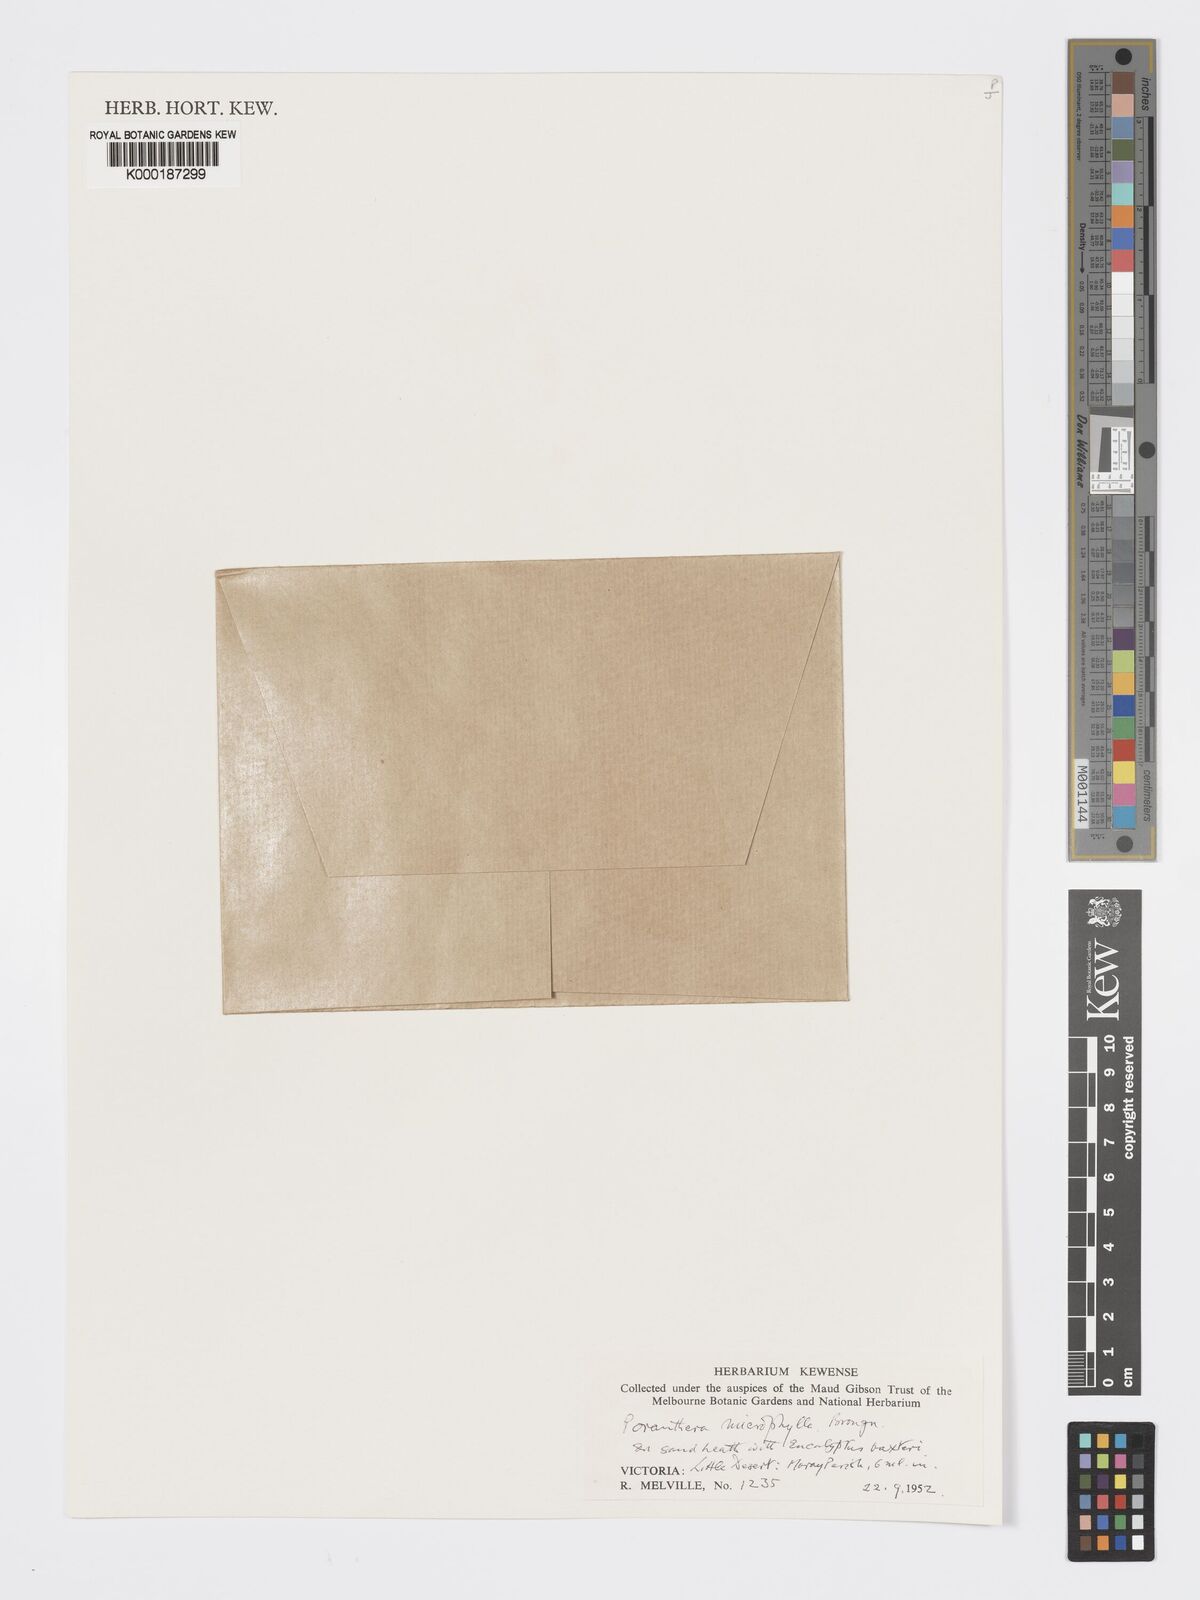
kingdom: Plantae
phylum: Tracheophyta
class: Magnoliopsida
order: Malpighiales
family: Phyllanthaceae
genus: Poranthera
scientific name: Poranthera microphylla
